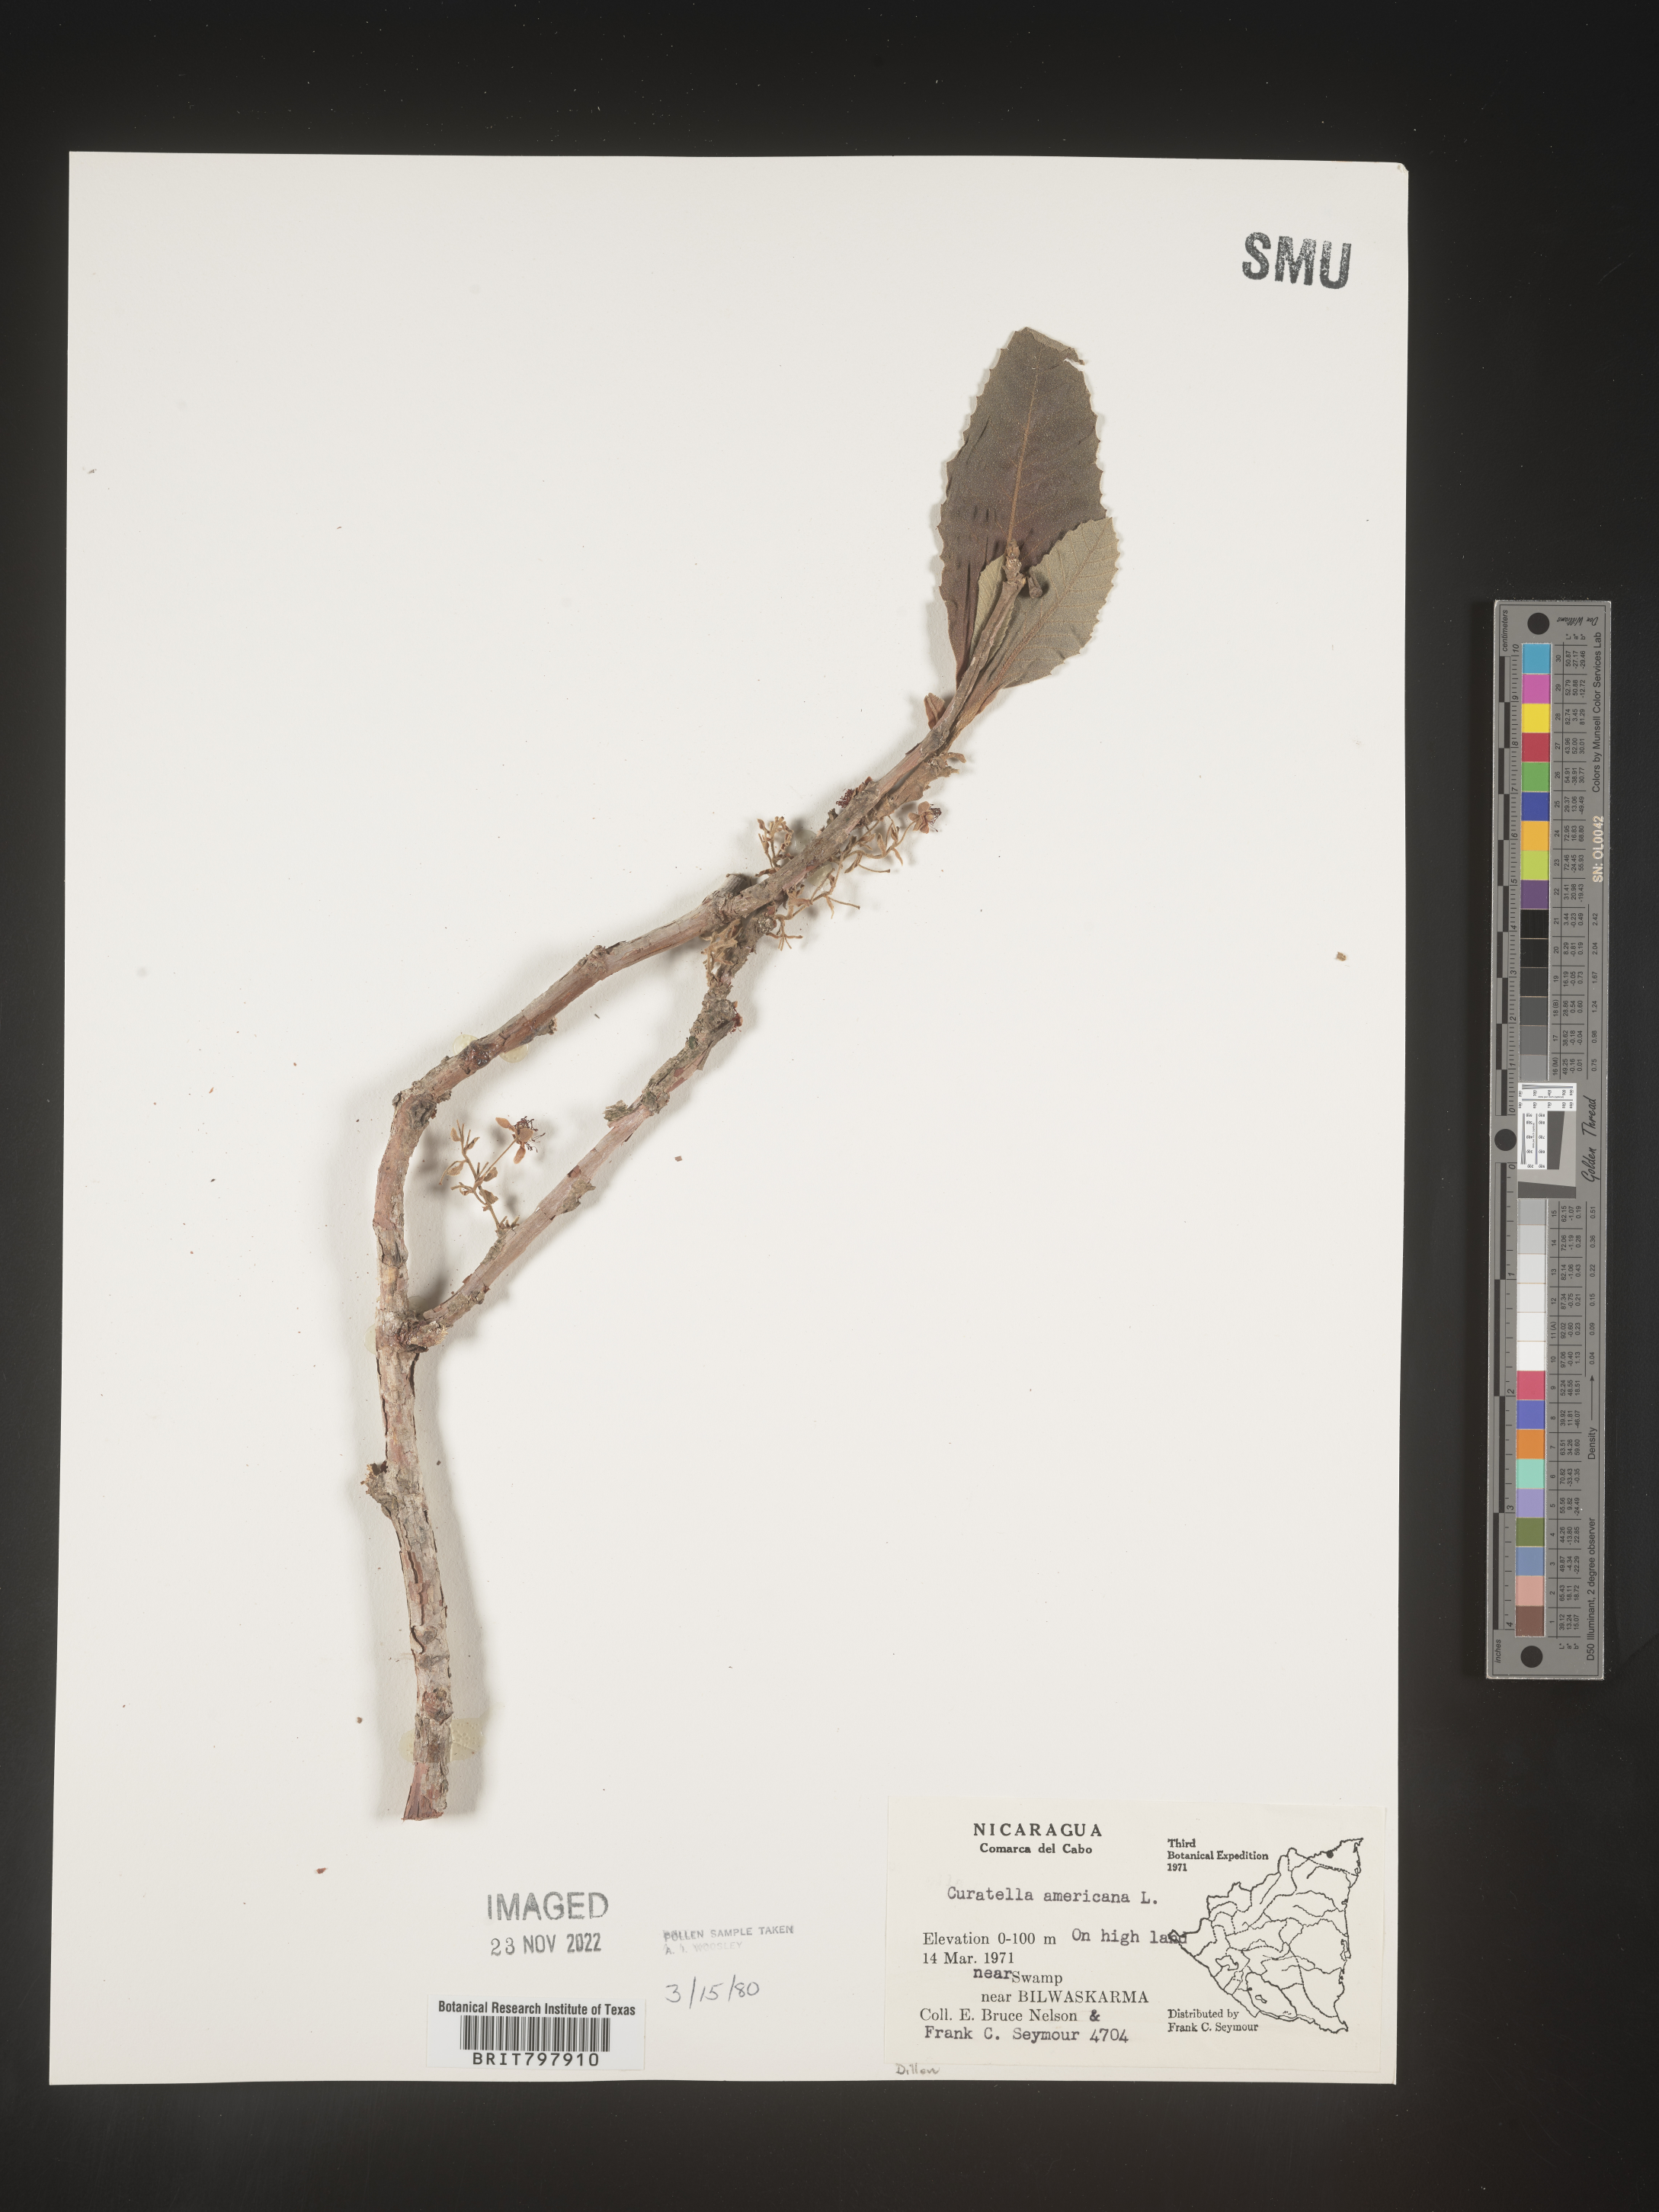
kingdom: Plantae
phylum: Tracheophyta
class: Magnoliopsida
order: Dilleniales
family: Dilleniaceae
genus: Curatella
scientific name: Curatella
